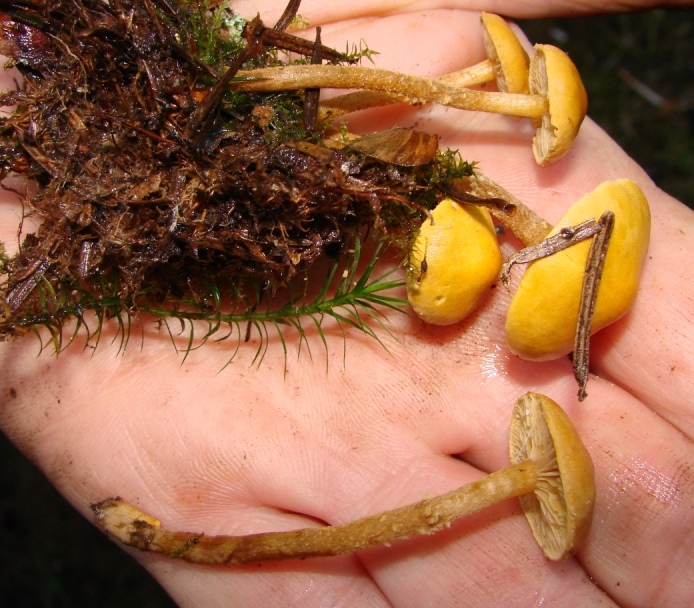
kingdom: Fungi
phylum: Basidiomycota
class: Agaricomycetes
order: Agaricales
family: Tricholomataceae
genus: Cystoderma
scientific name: Cystoderma jasonis
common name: gulkødet grynhat
